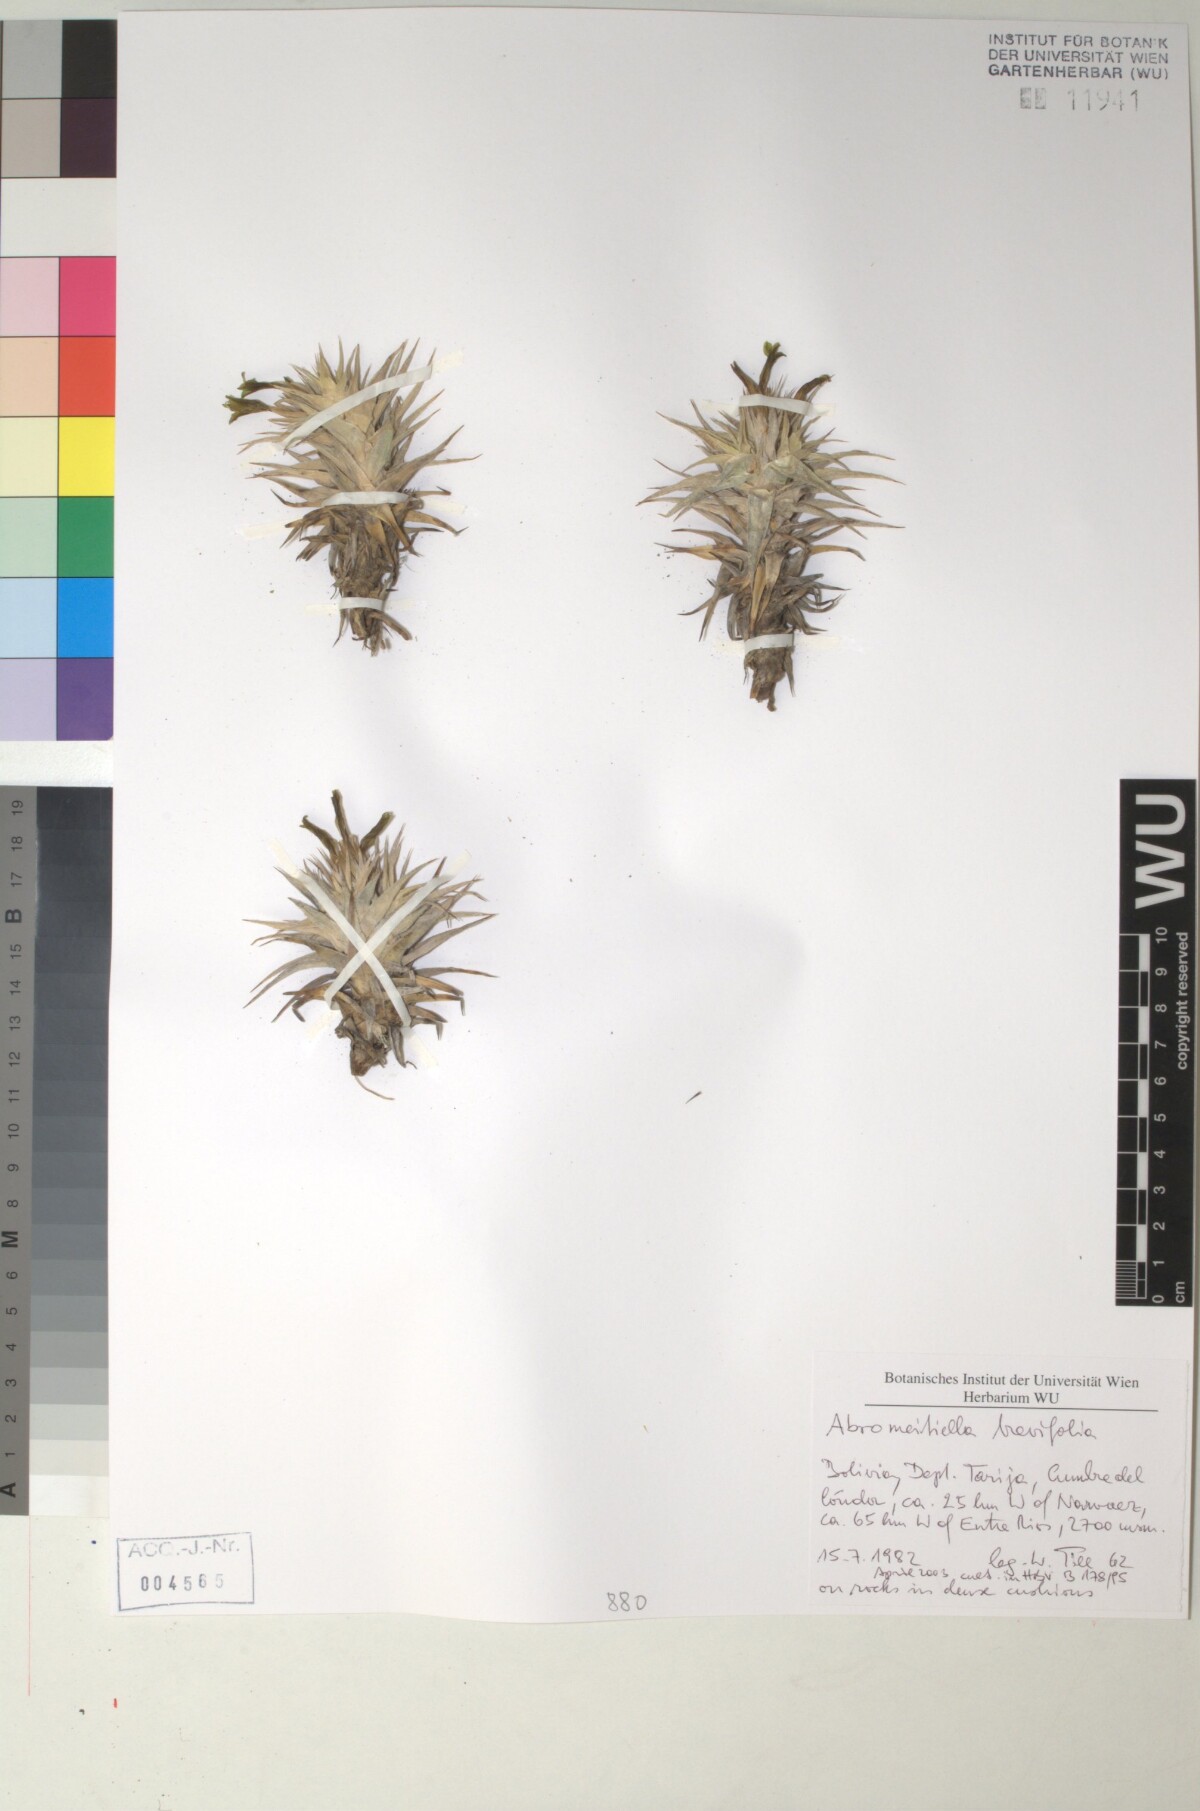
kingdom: Plantae
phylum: Tracheophyta
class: Liliopsida
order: Poales
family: Bromeliaceae
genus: Deuterocohnia
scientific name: Deuterocohnia brevifolia
